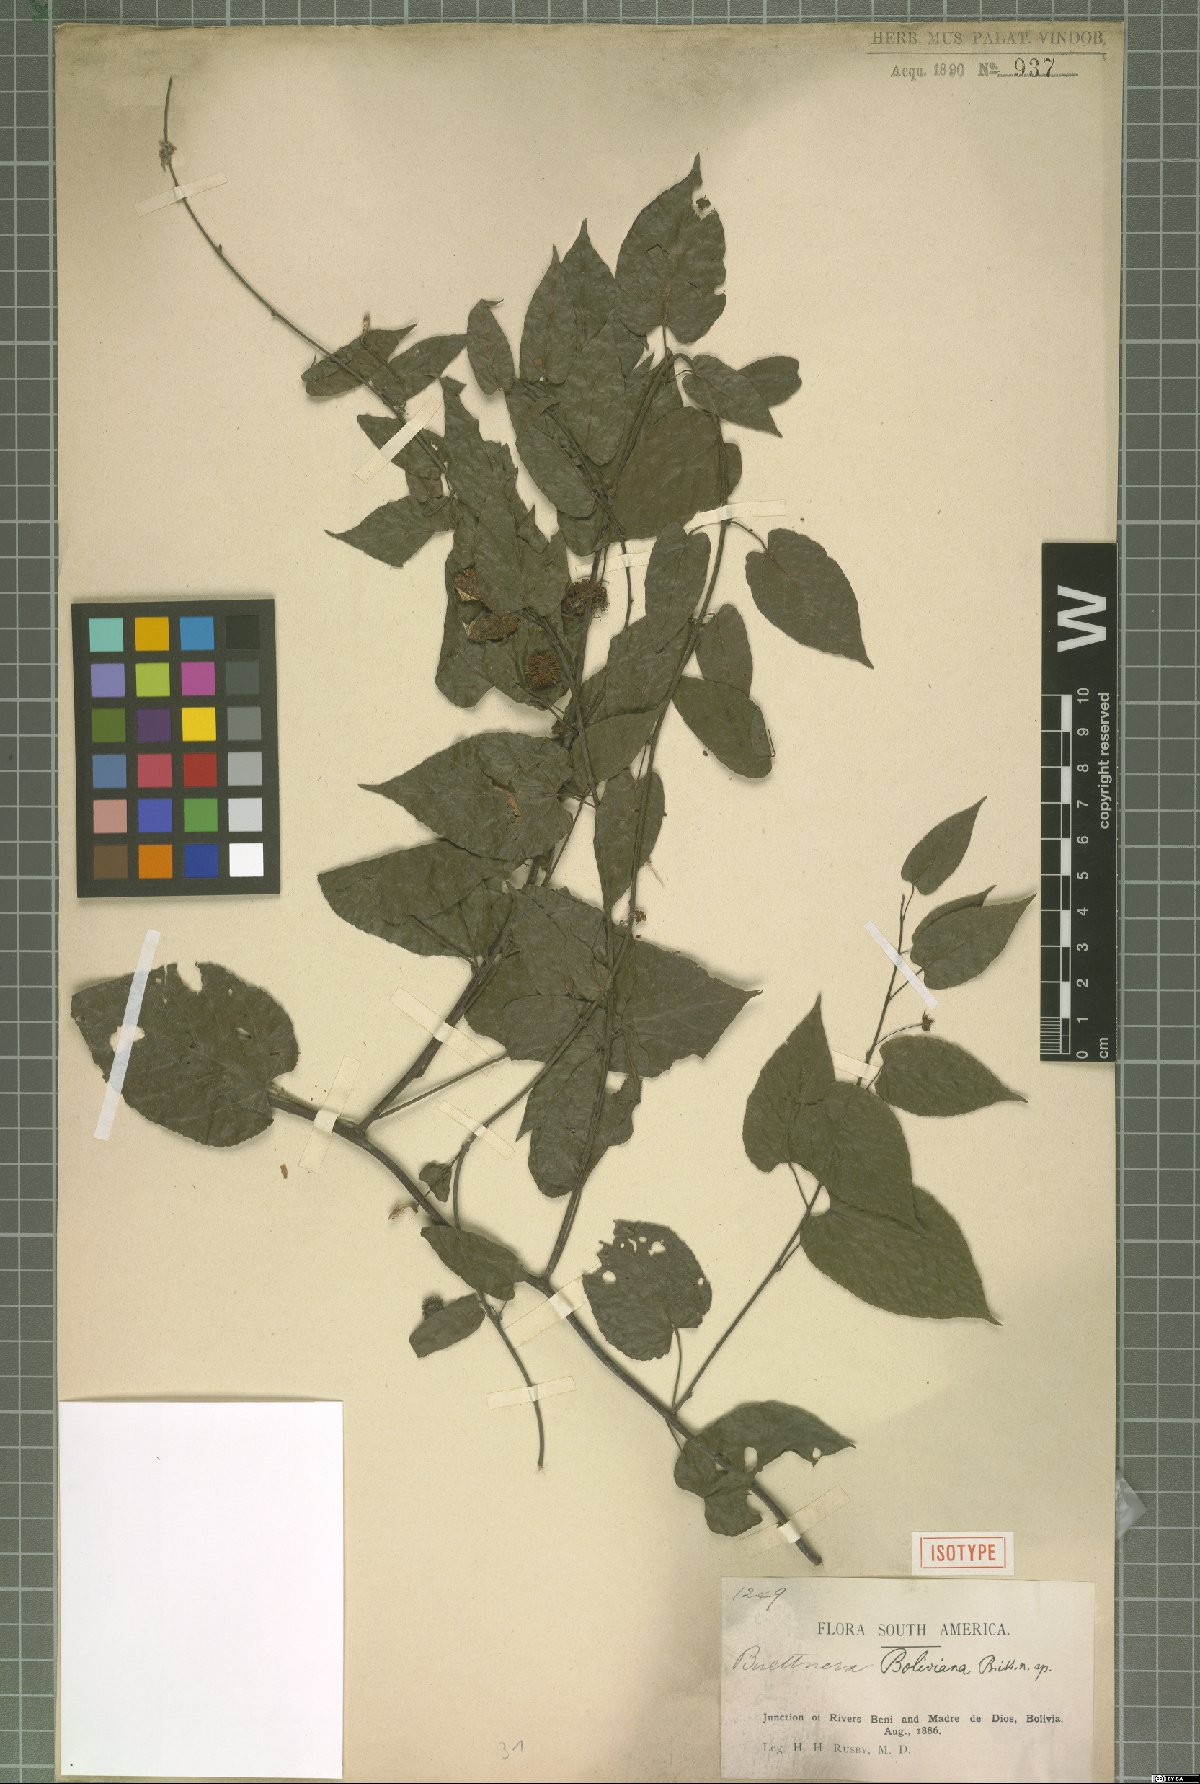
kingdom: Plantae
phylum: Tracheophyta
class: Magnoliopsida
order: Malvales
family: Malvaceae
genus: Byttneria
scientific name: Byttneria benensis
